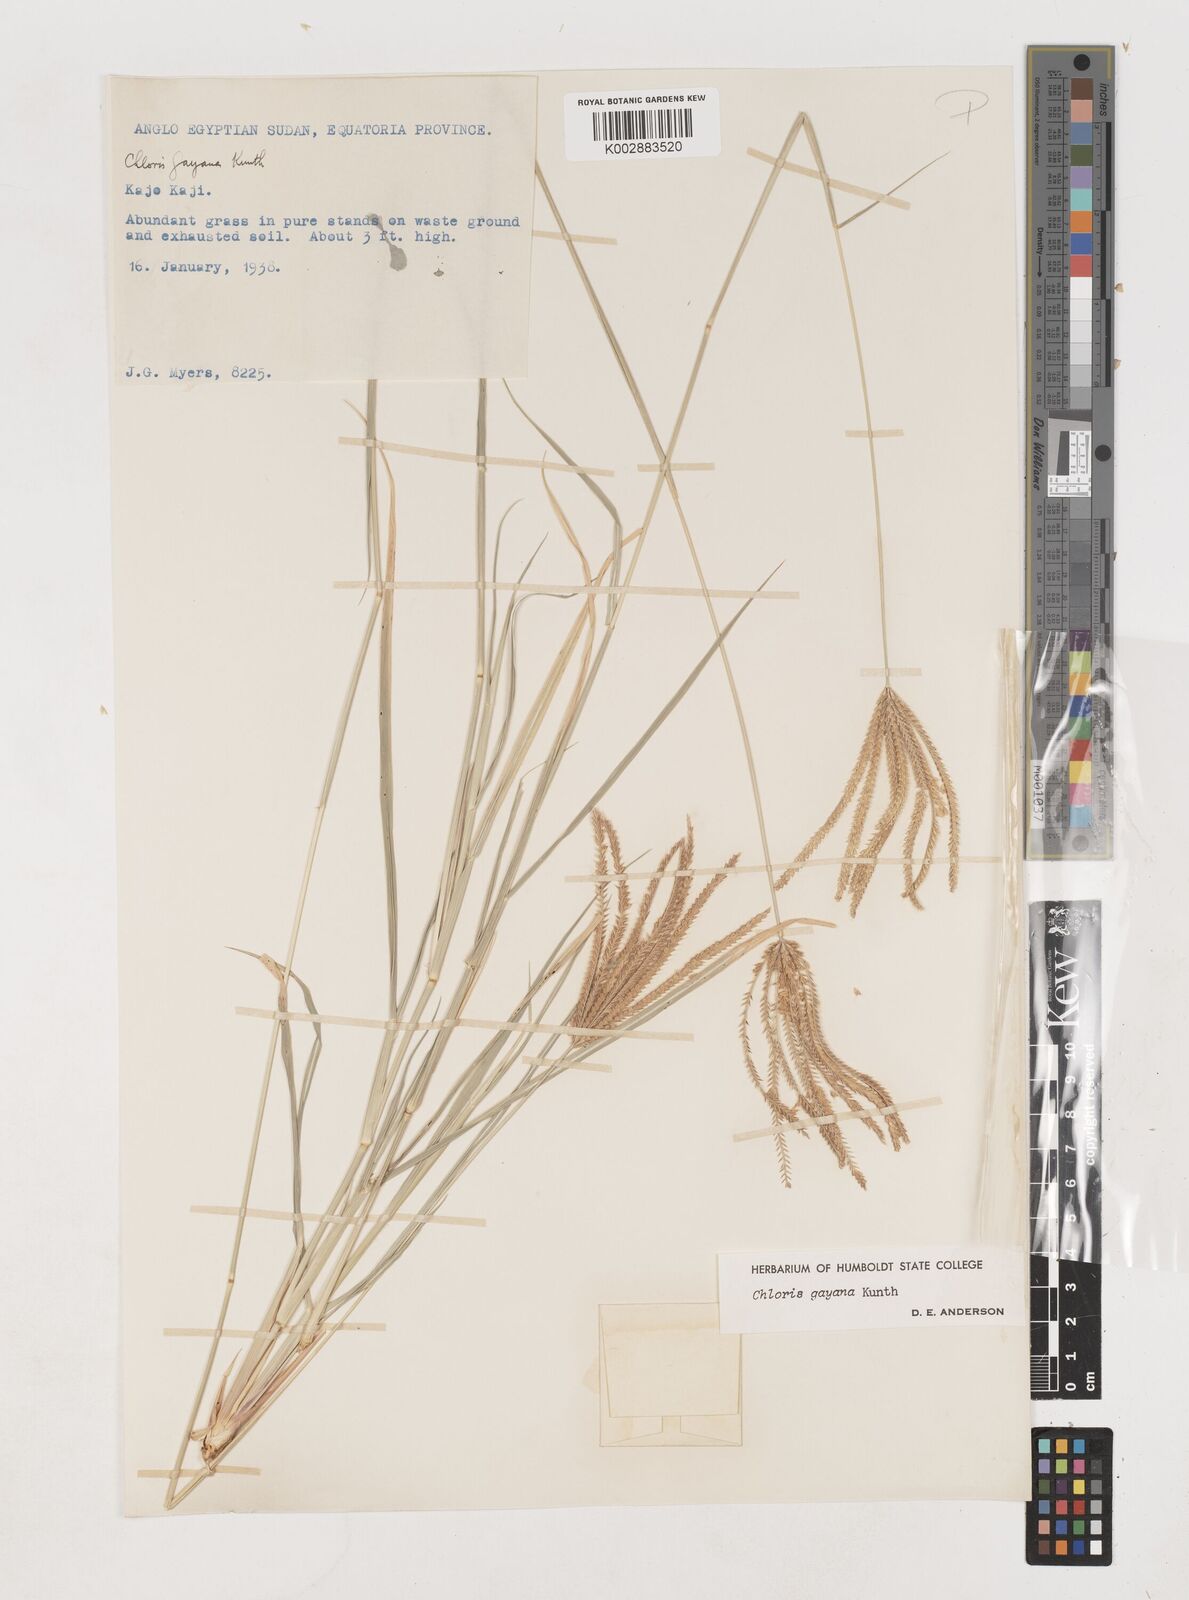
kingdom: Plantae
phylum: Tracheophyta
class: Liliopsida
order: Poales
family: Poaceae
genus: Chloris
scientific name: Chloris gayana
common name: Rhodes grass
